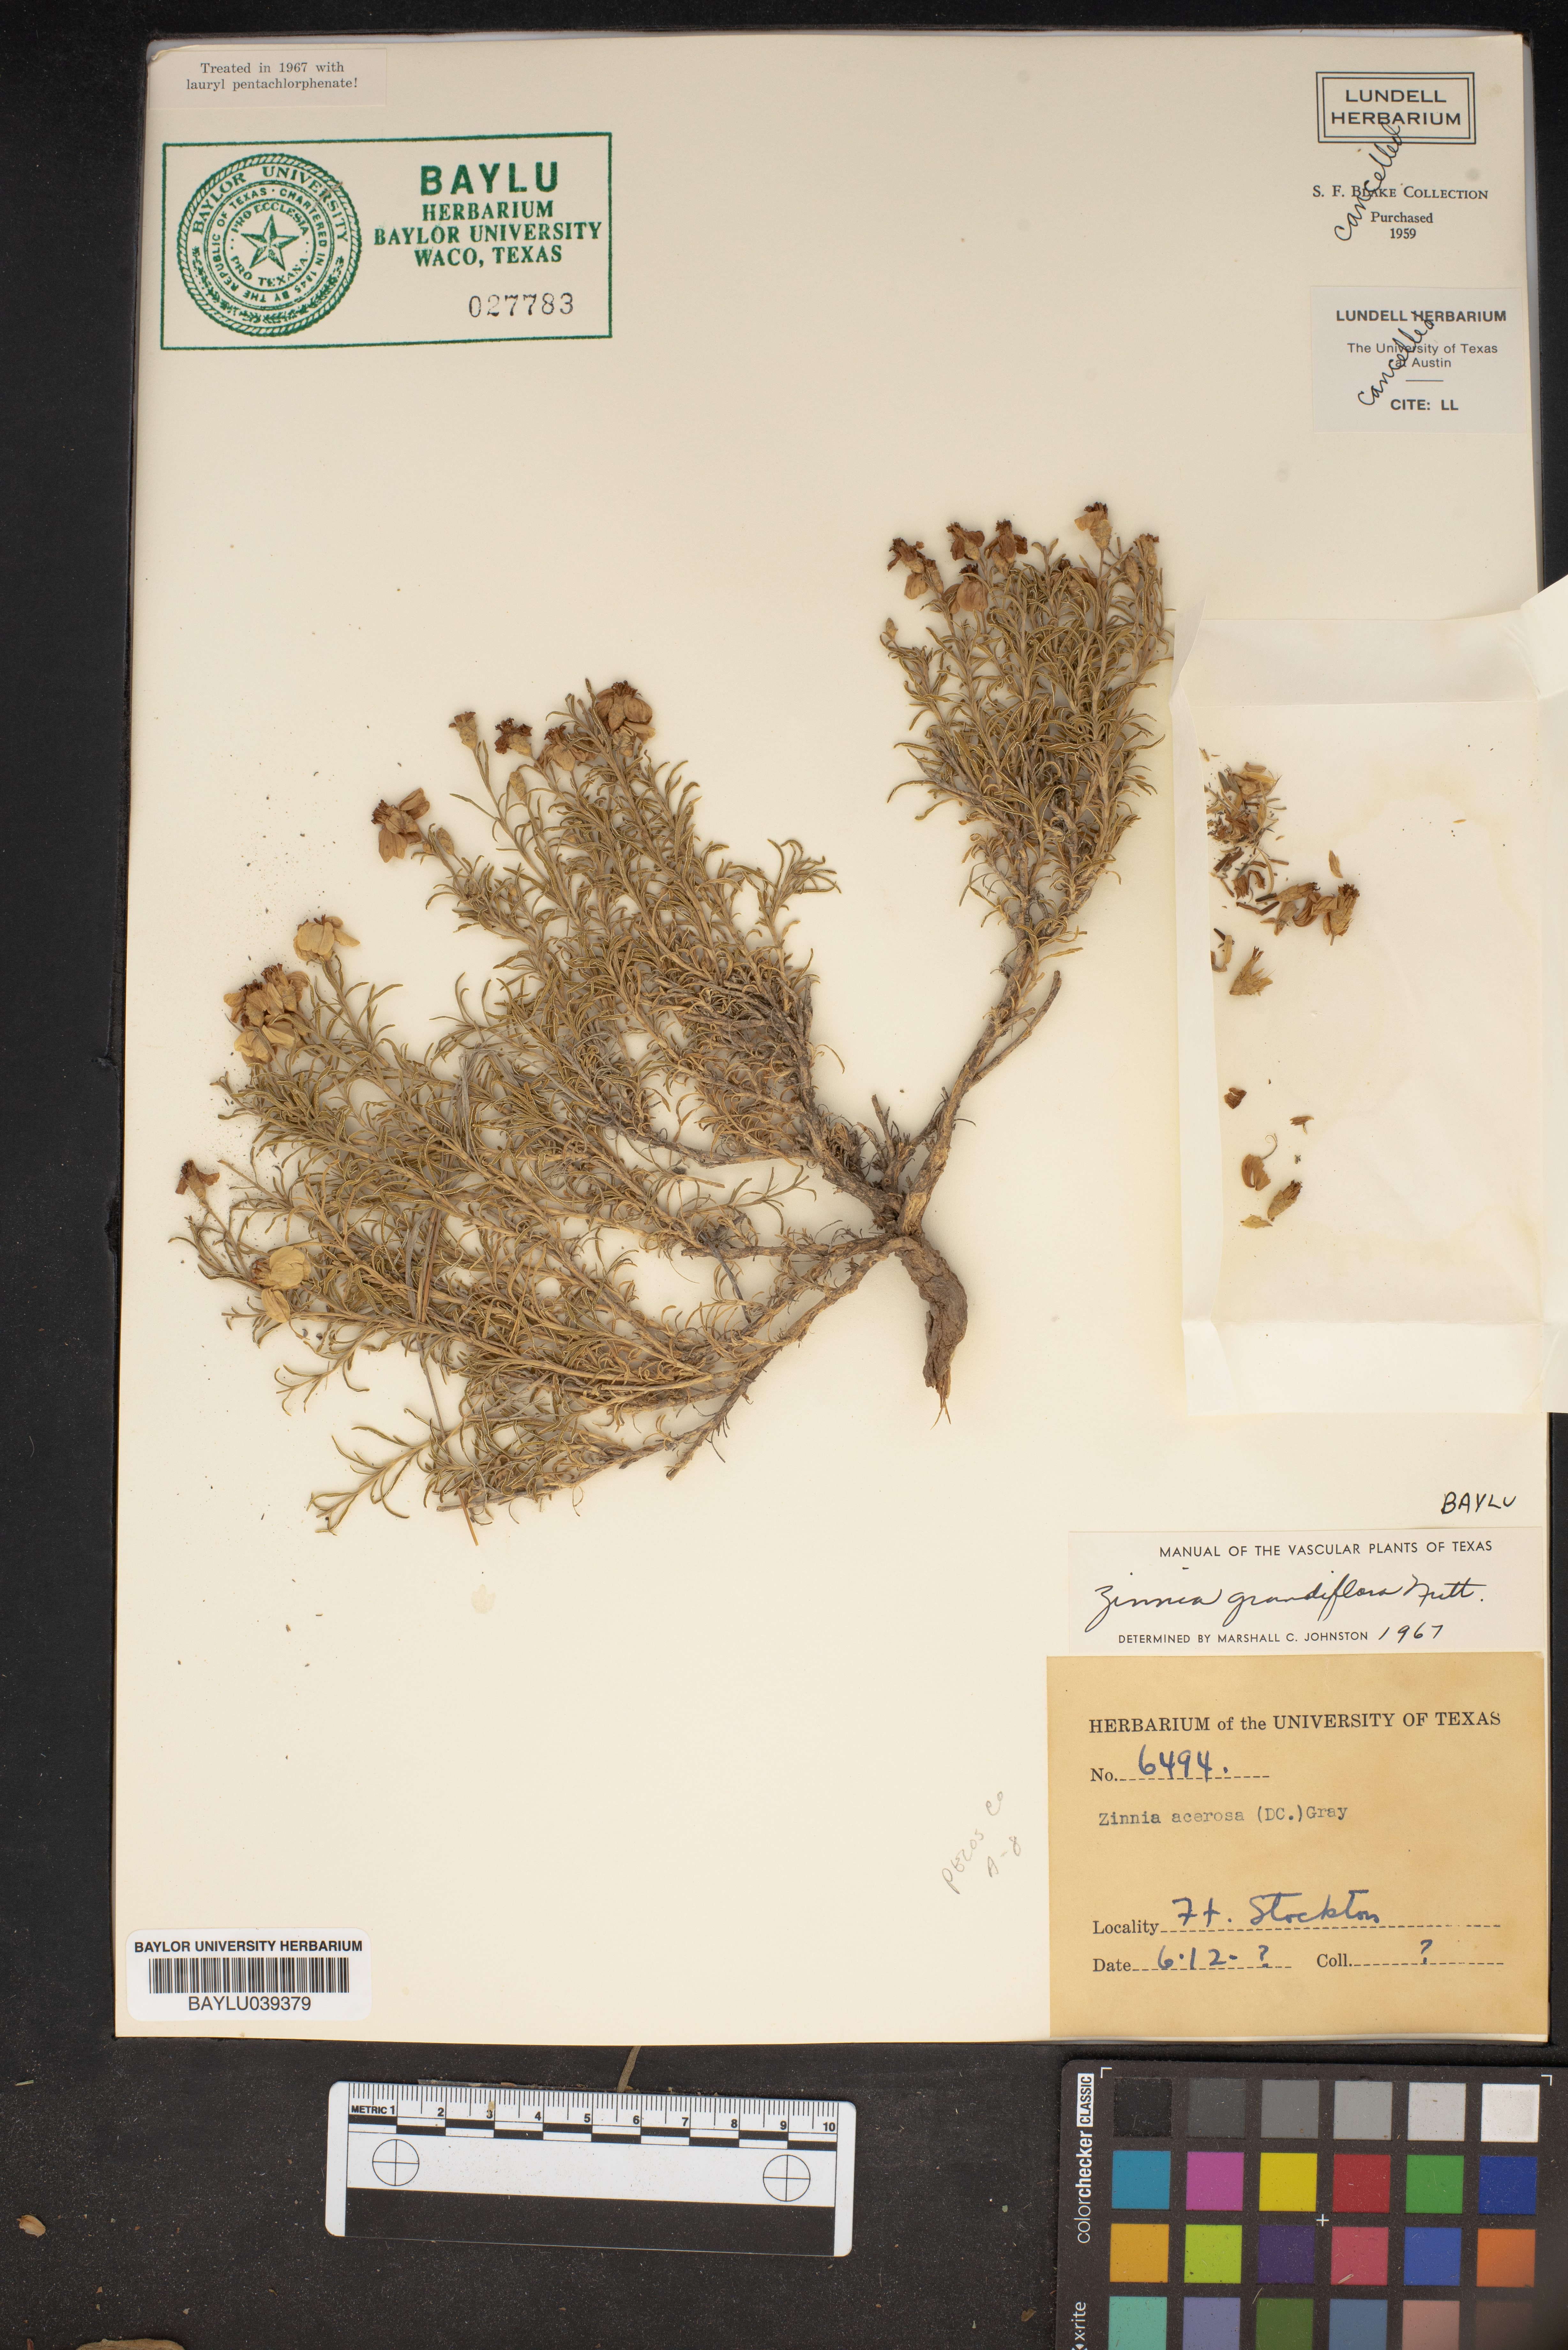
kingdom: Plantae
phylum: Tracheophyta
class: Magnoliopsida
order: Asterales
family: Asteraceae
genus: Zinnia
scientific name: Zinnia grandiflora
